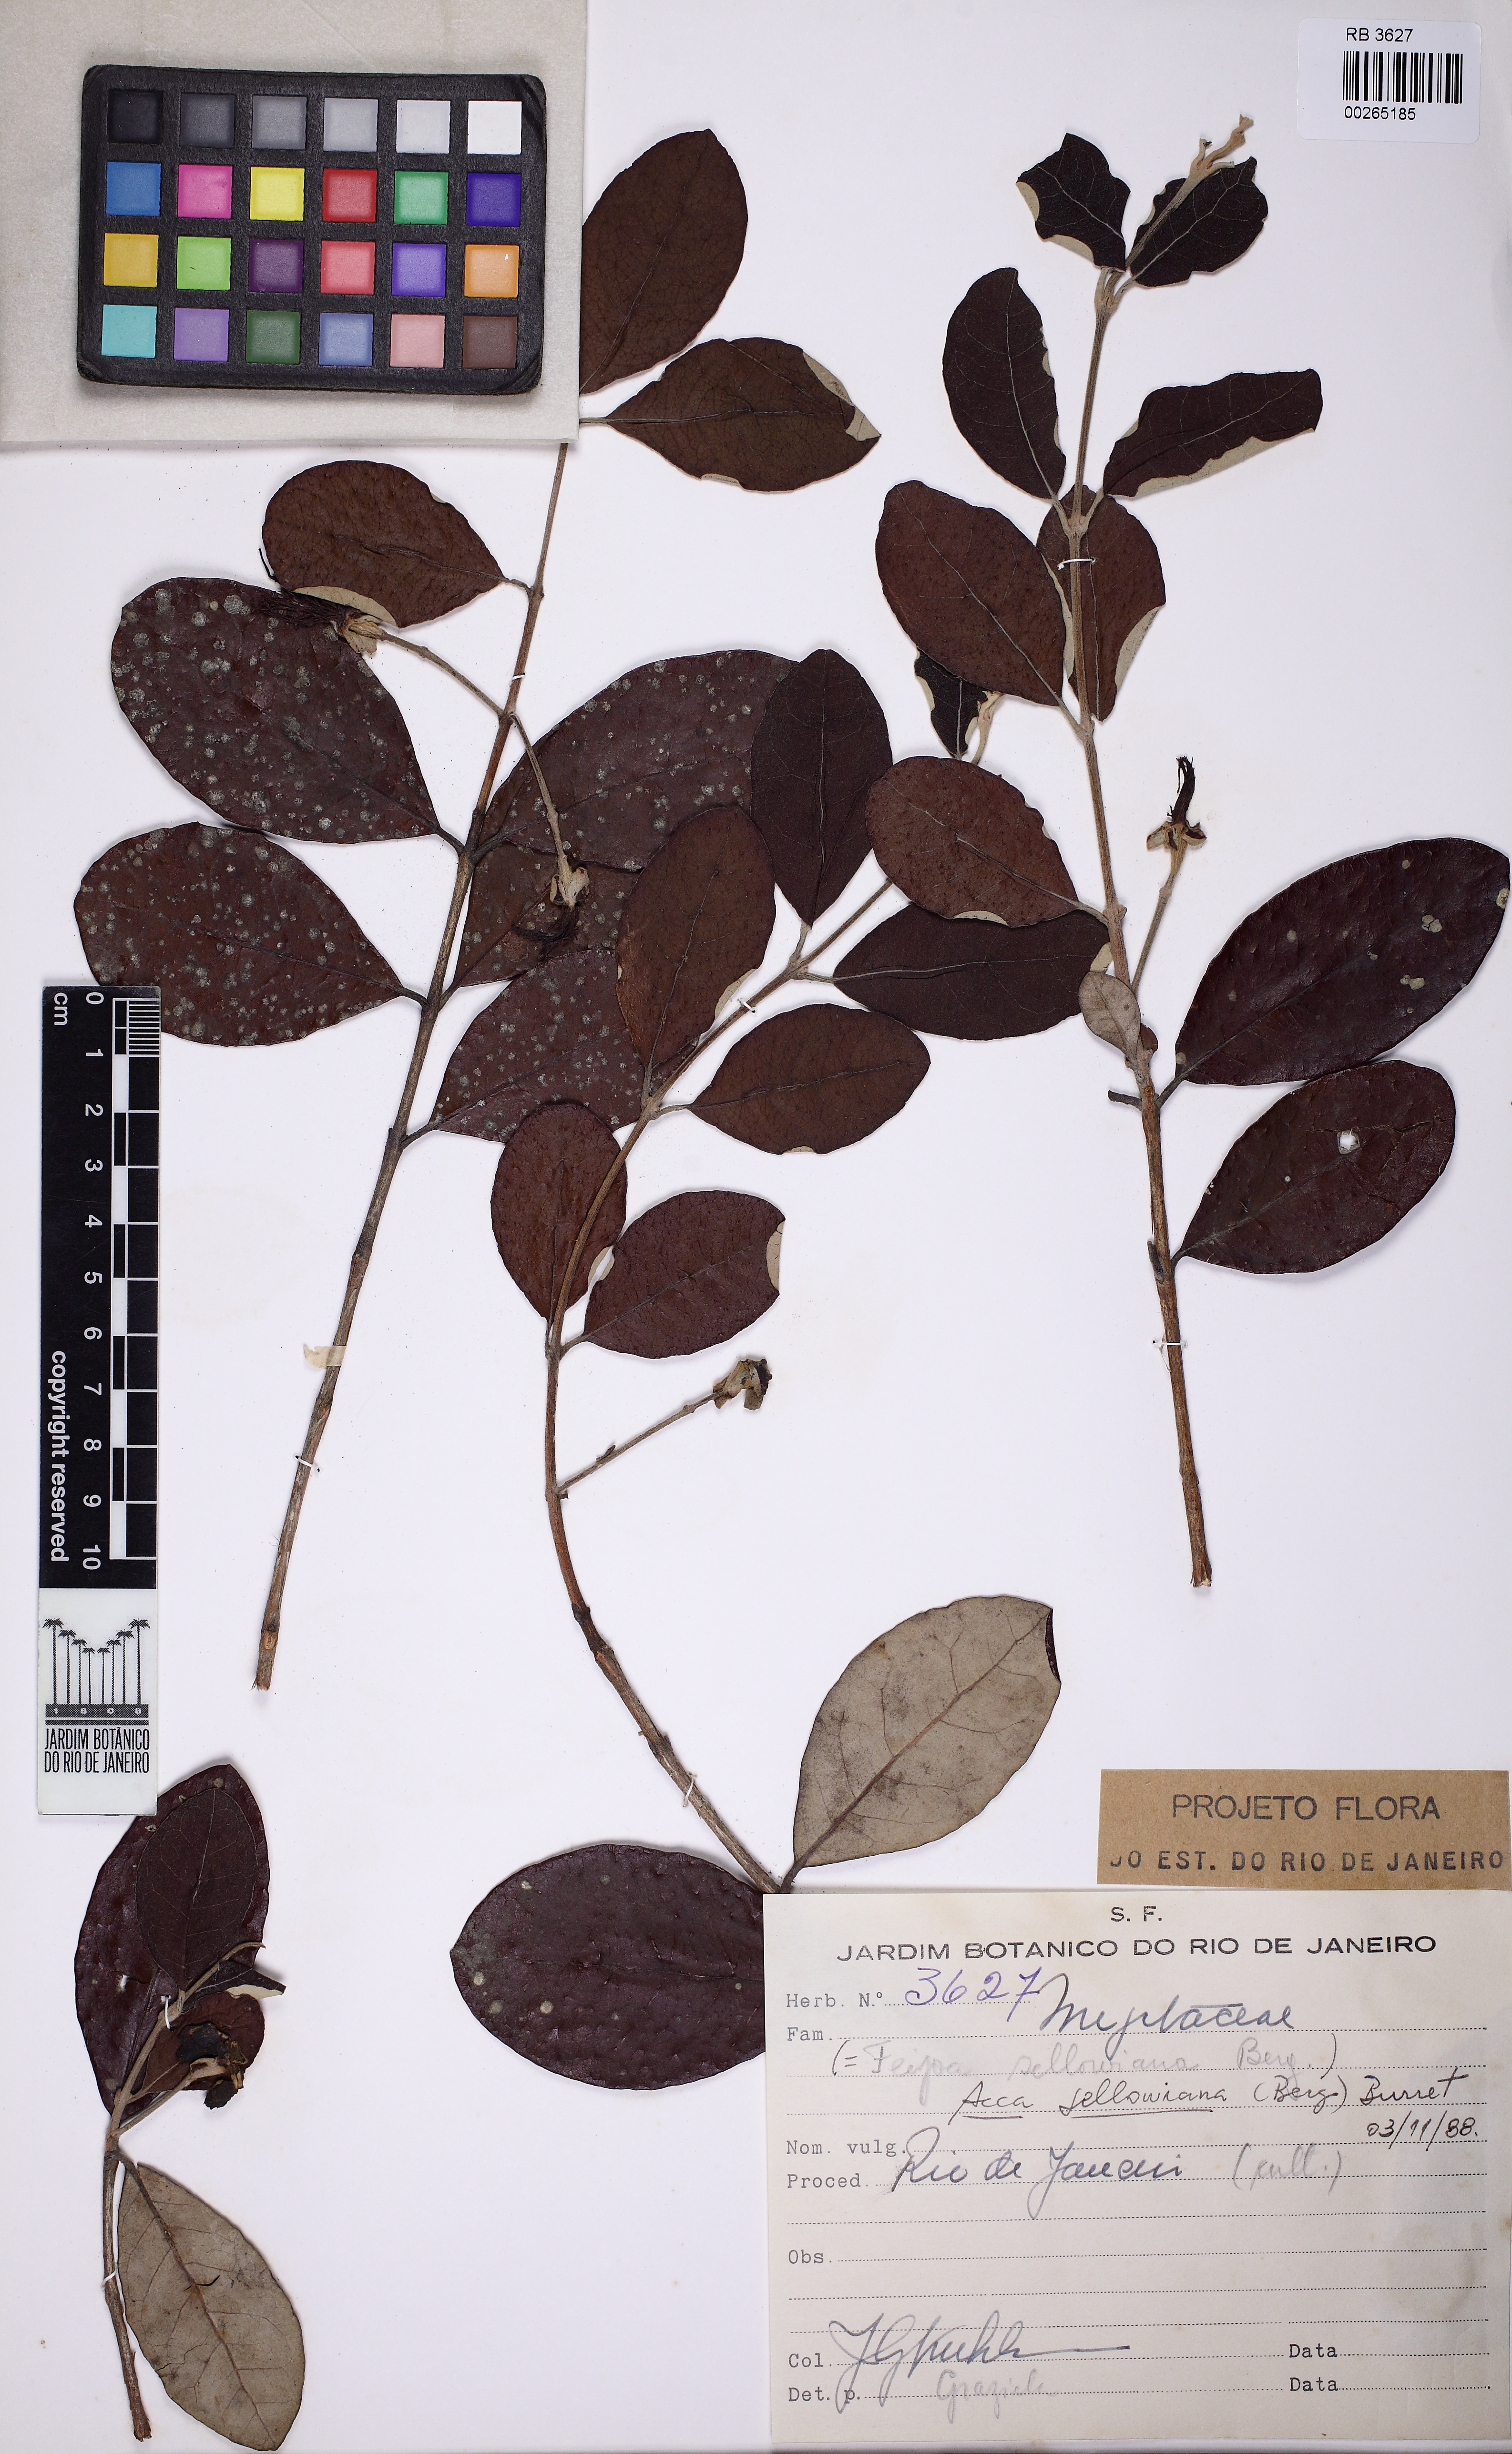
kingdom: Plantae
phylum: Tracheophyta
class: Magnoliopsida
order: Myrtales
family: Myrtaceae
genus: Feijoa
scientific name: Feijoa sellowiana
